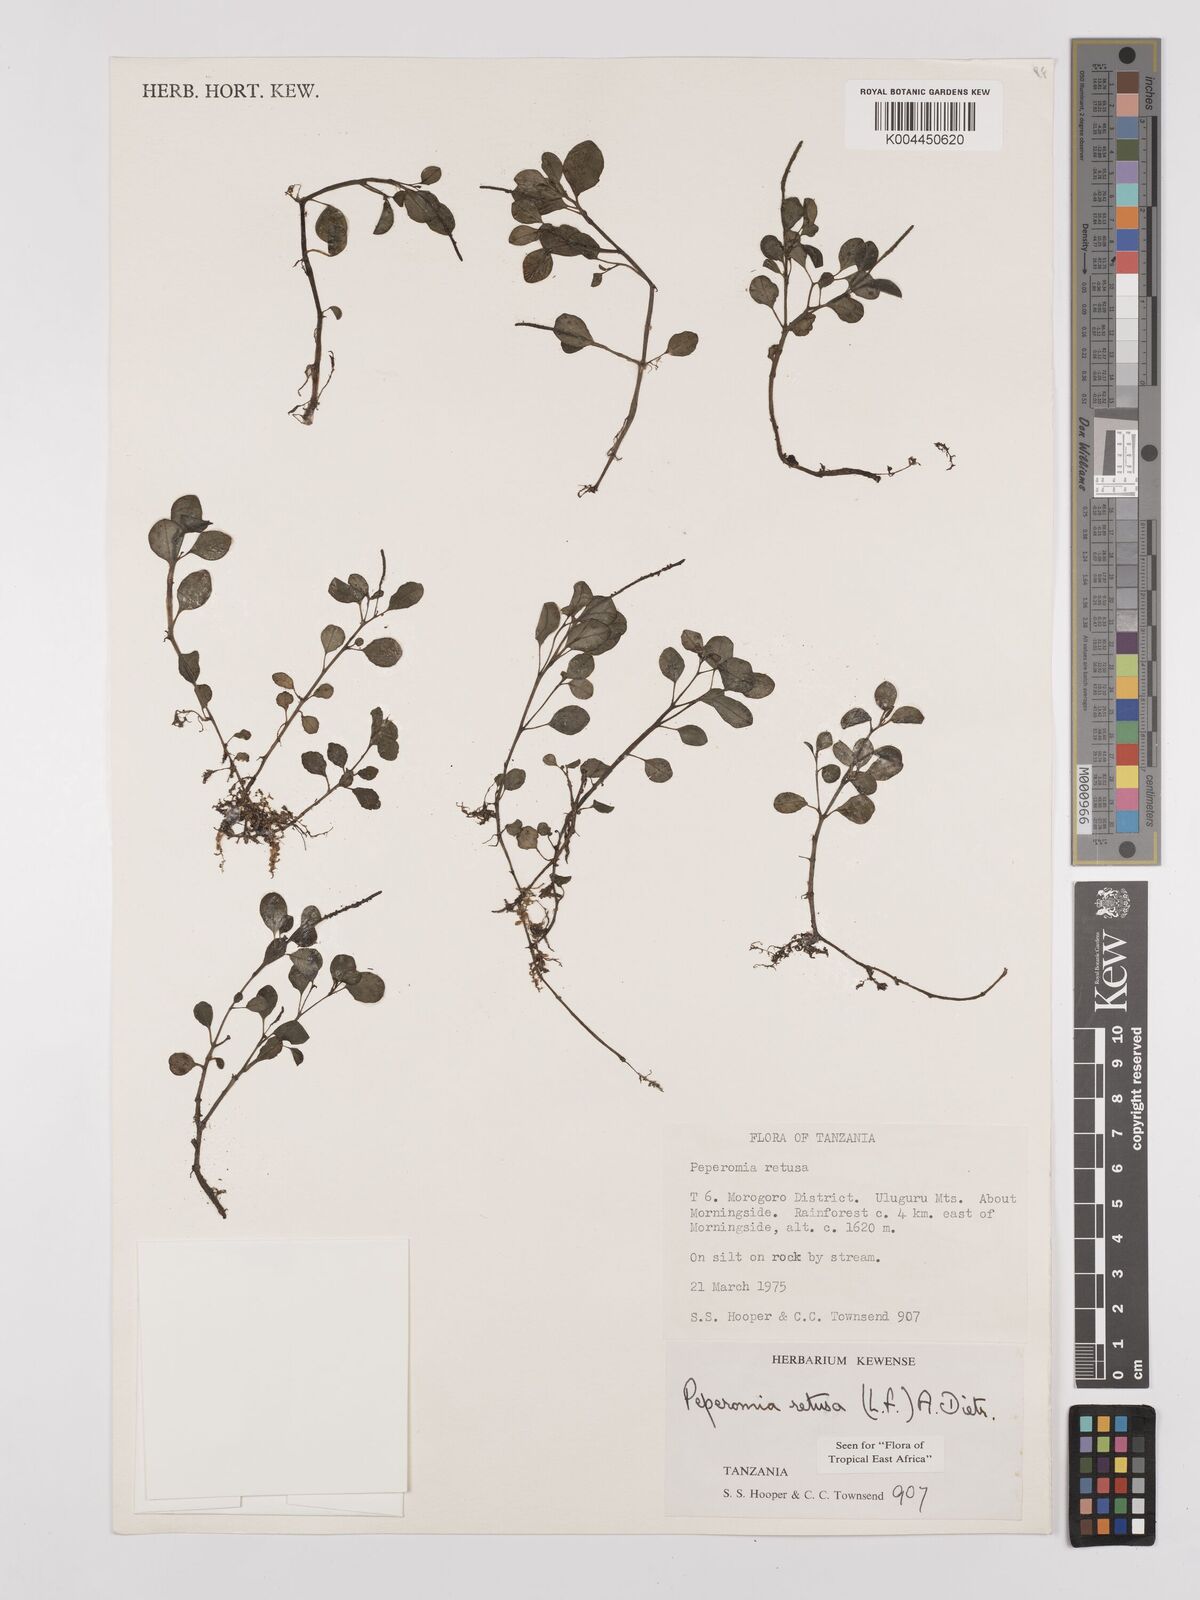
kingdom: Plantae
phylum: Tracheophyta
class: Magnoliopsida
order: Piperales
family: Piperaceae
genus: Peperomia
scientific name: Peperomia retusa
